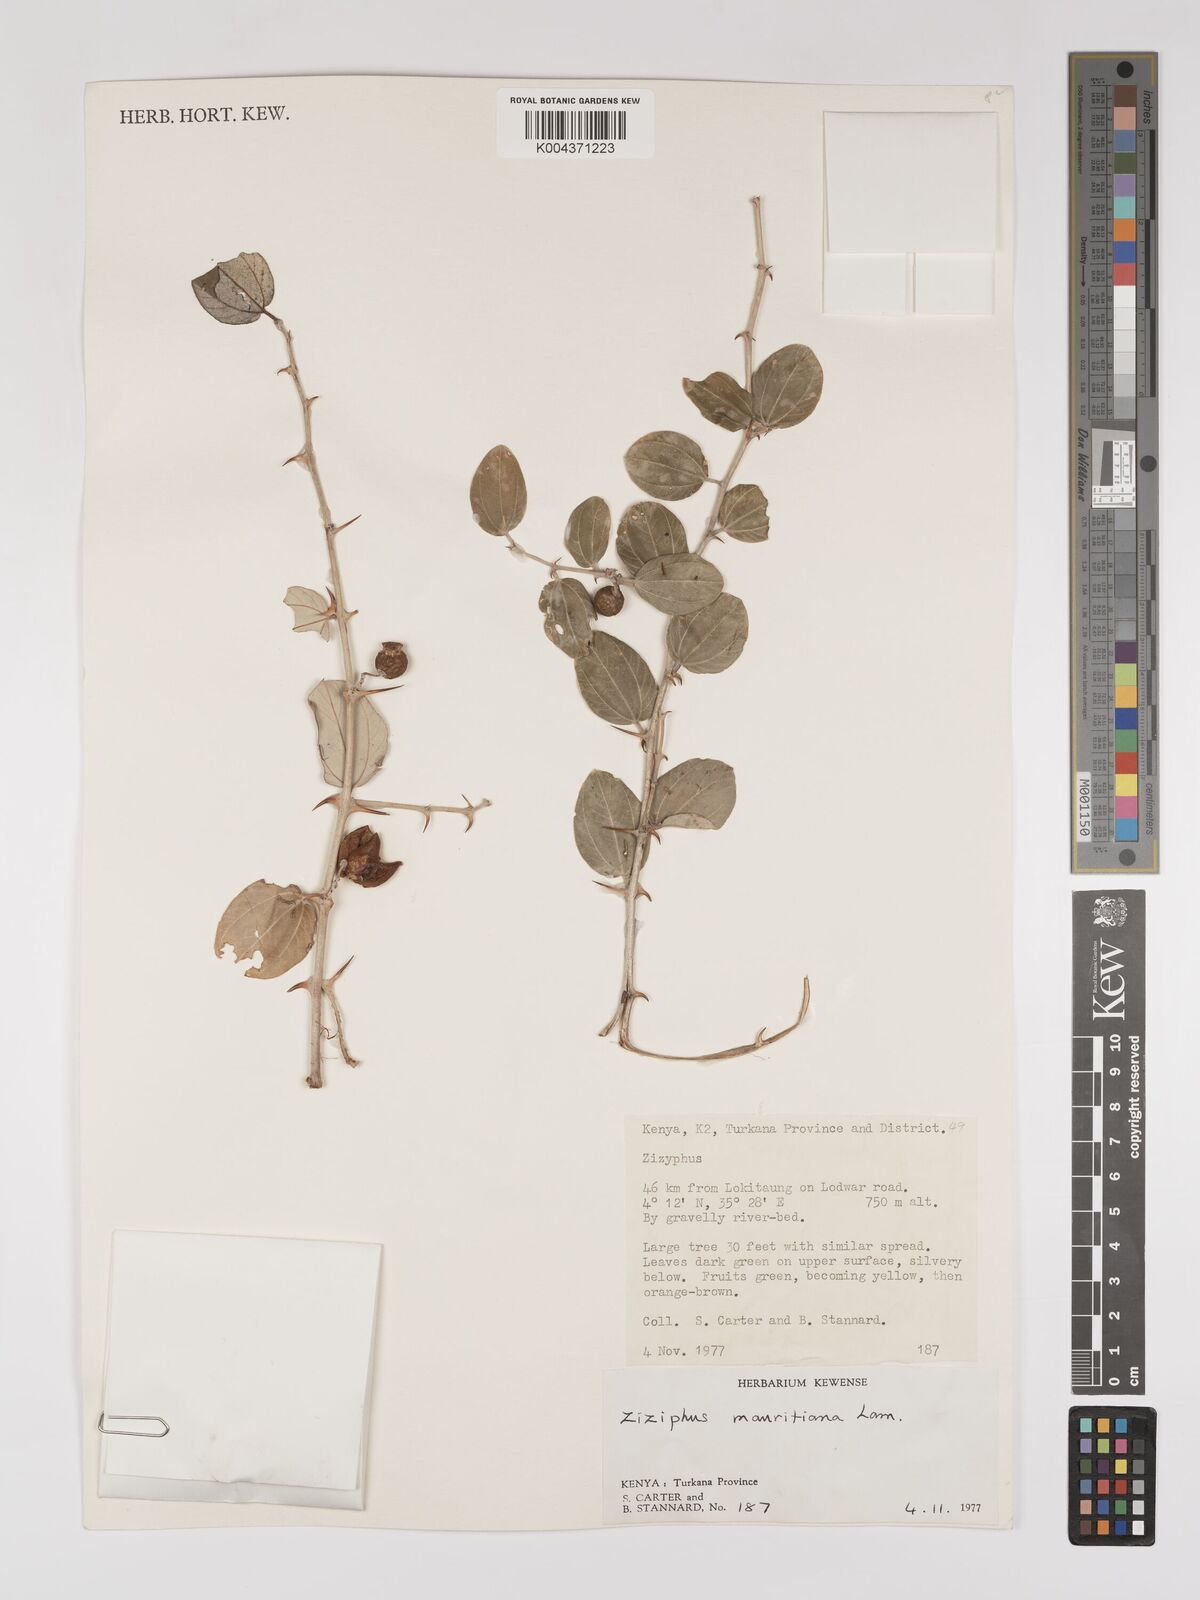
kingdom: Plantae
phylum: Tracheophyta
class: Magnoliopsida
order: Rosales
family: Rhamnaceae
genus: Ziziphus
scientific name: Ziziphus mauritiana
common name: Indian jujube
